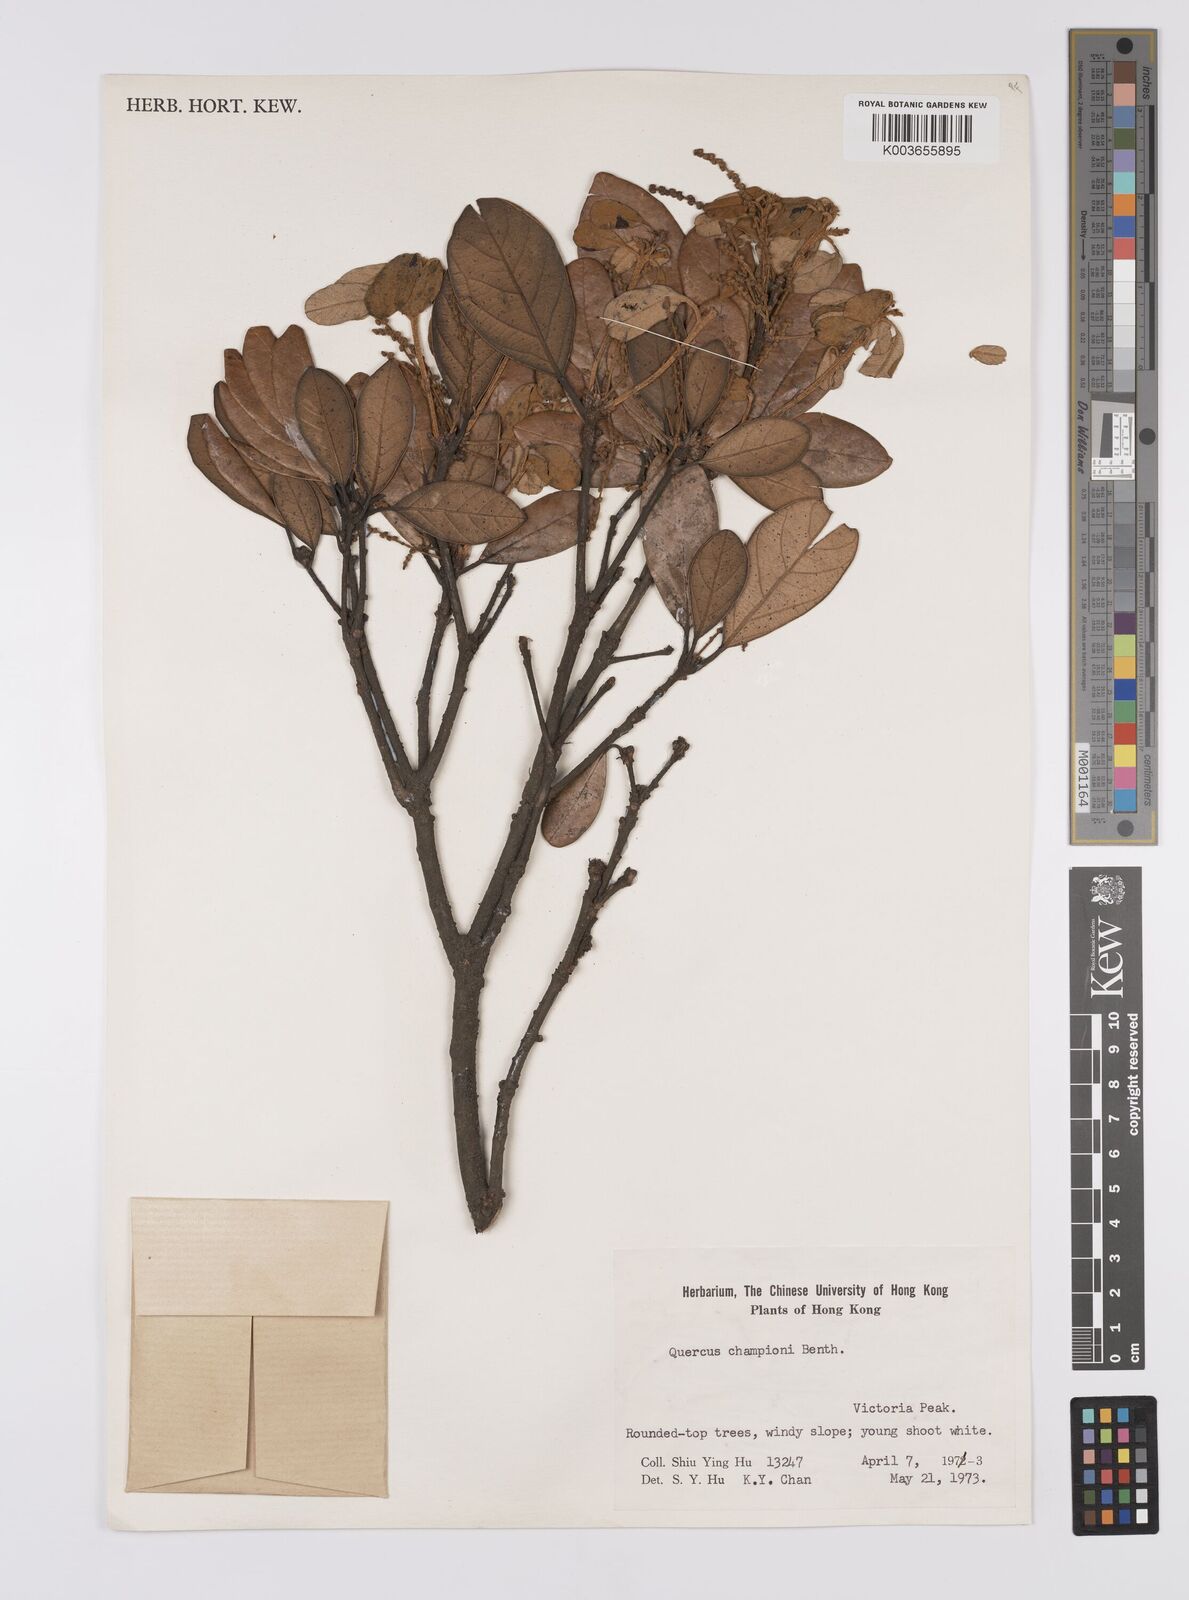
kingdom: Plantae
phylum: Tracheophyta
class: Magnoliopsida
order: Fagales
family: Fagaceae
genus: Quercus
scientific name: Quercus championii
